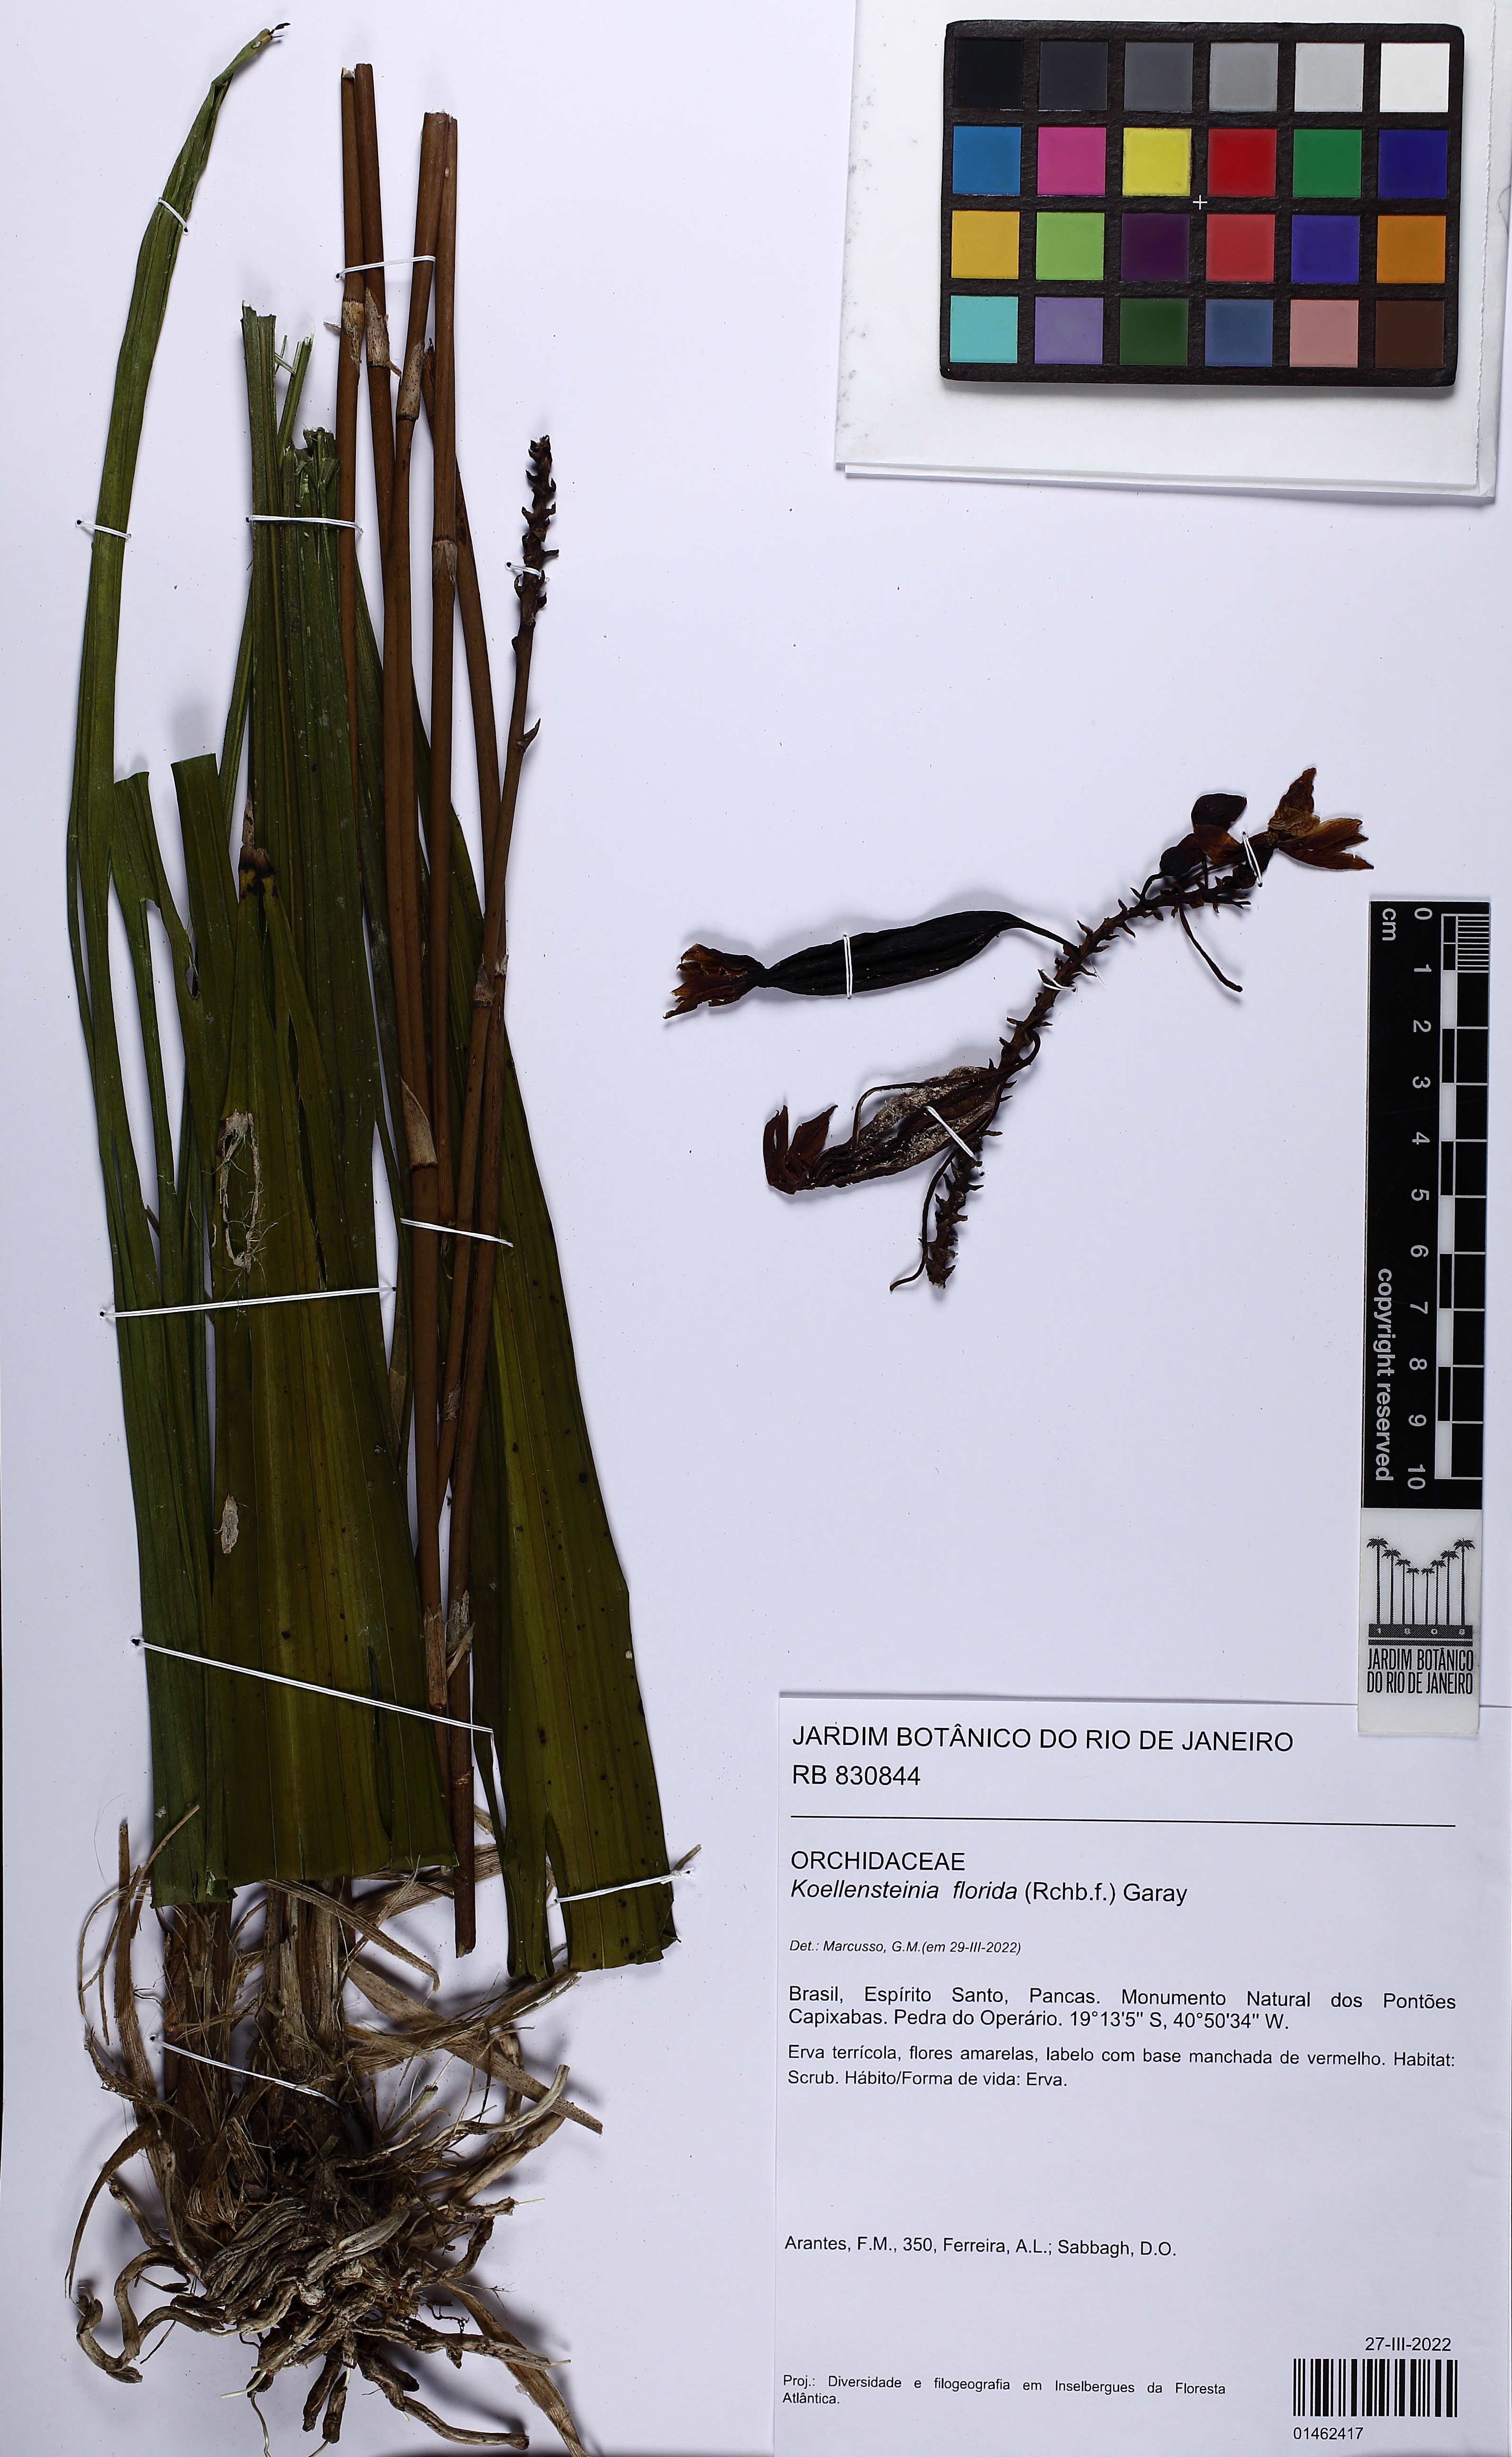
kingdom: Plantae
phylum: Tracheophyta
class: Liliopsida
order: Asparagales
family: Orchidaceae
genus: Koellensteinia
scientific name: Koellensteinia florida
